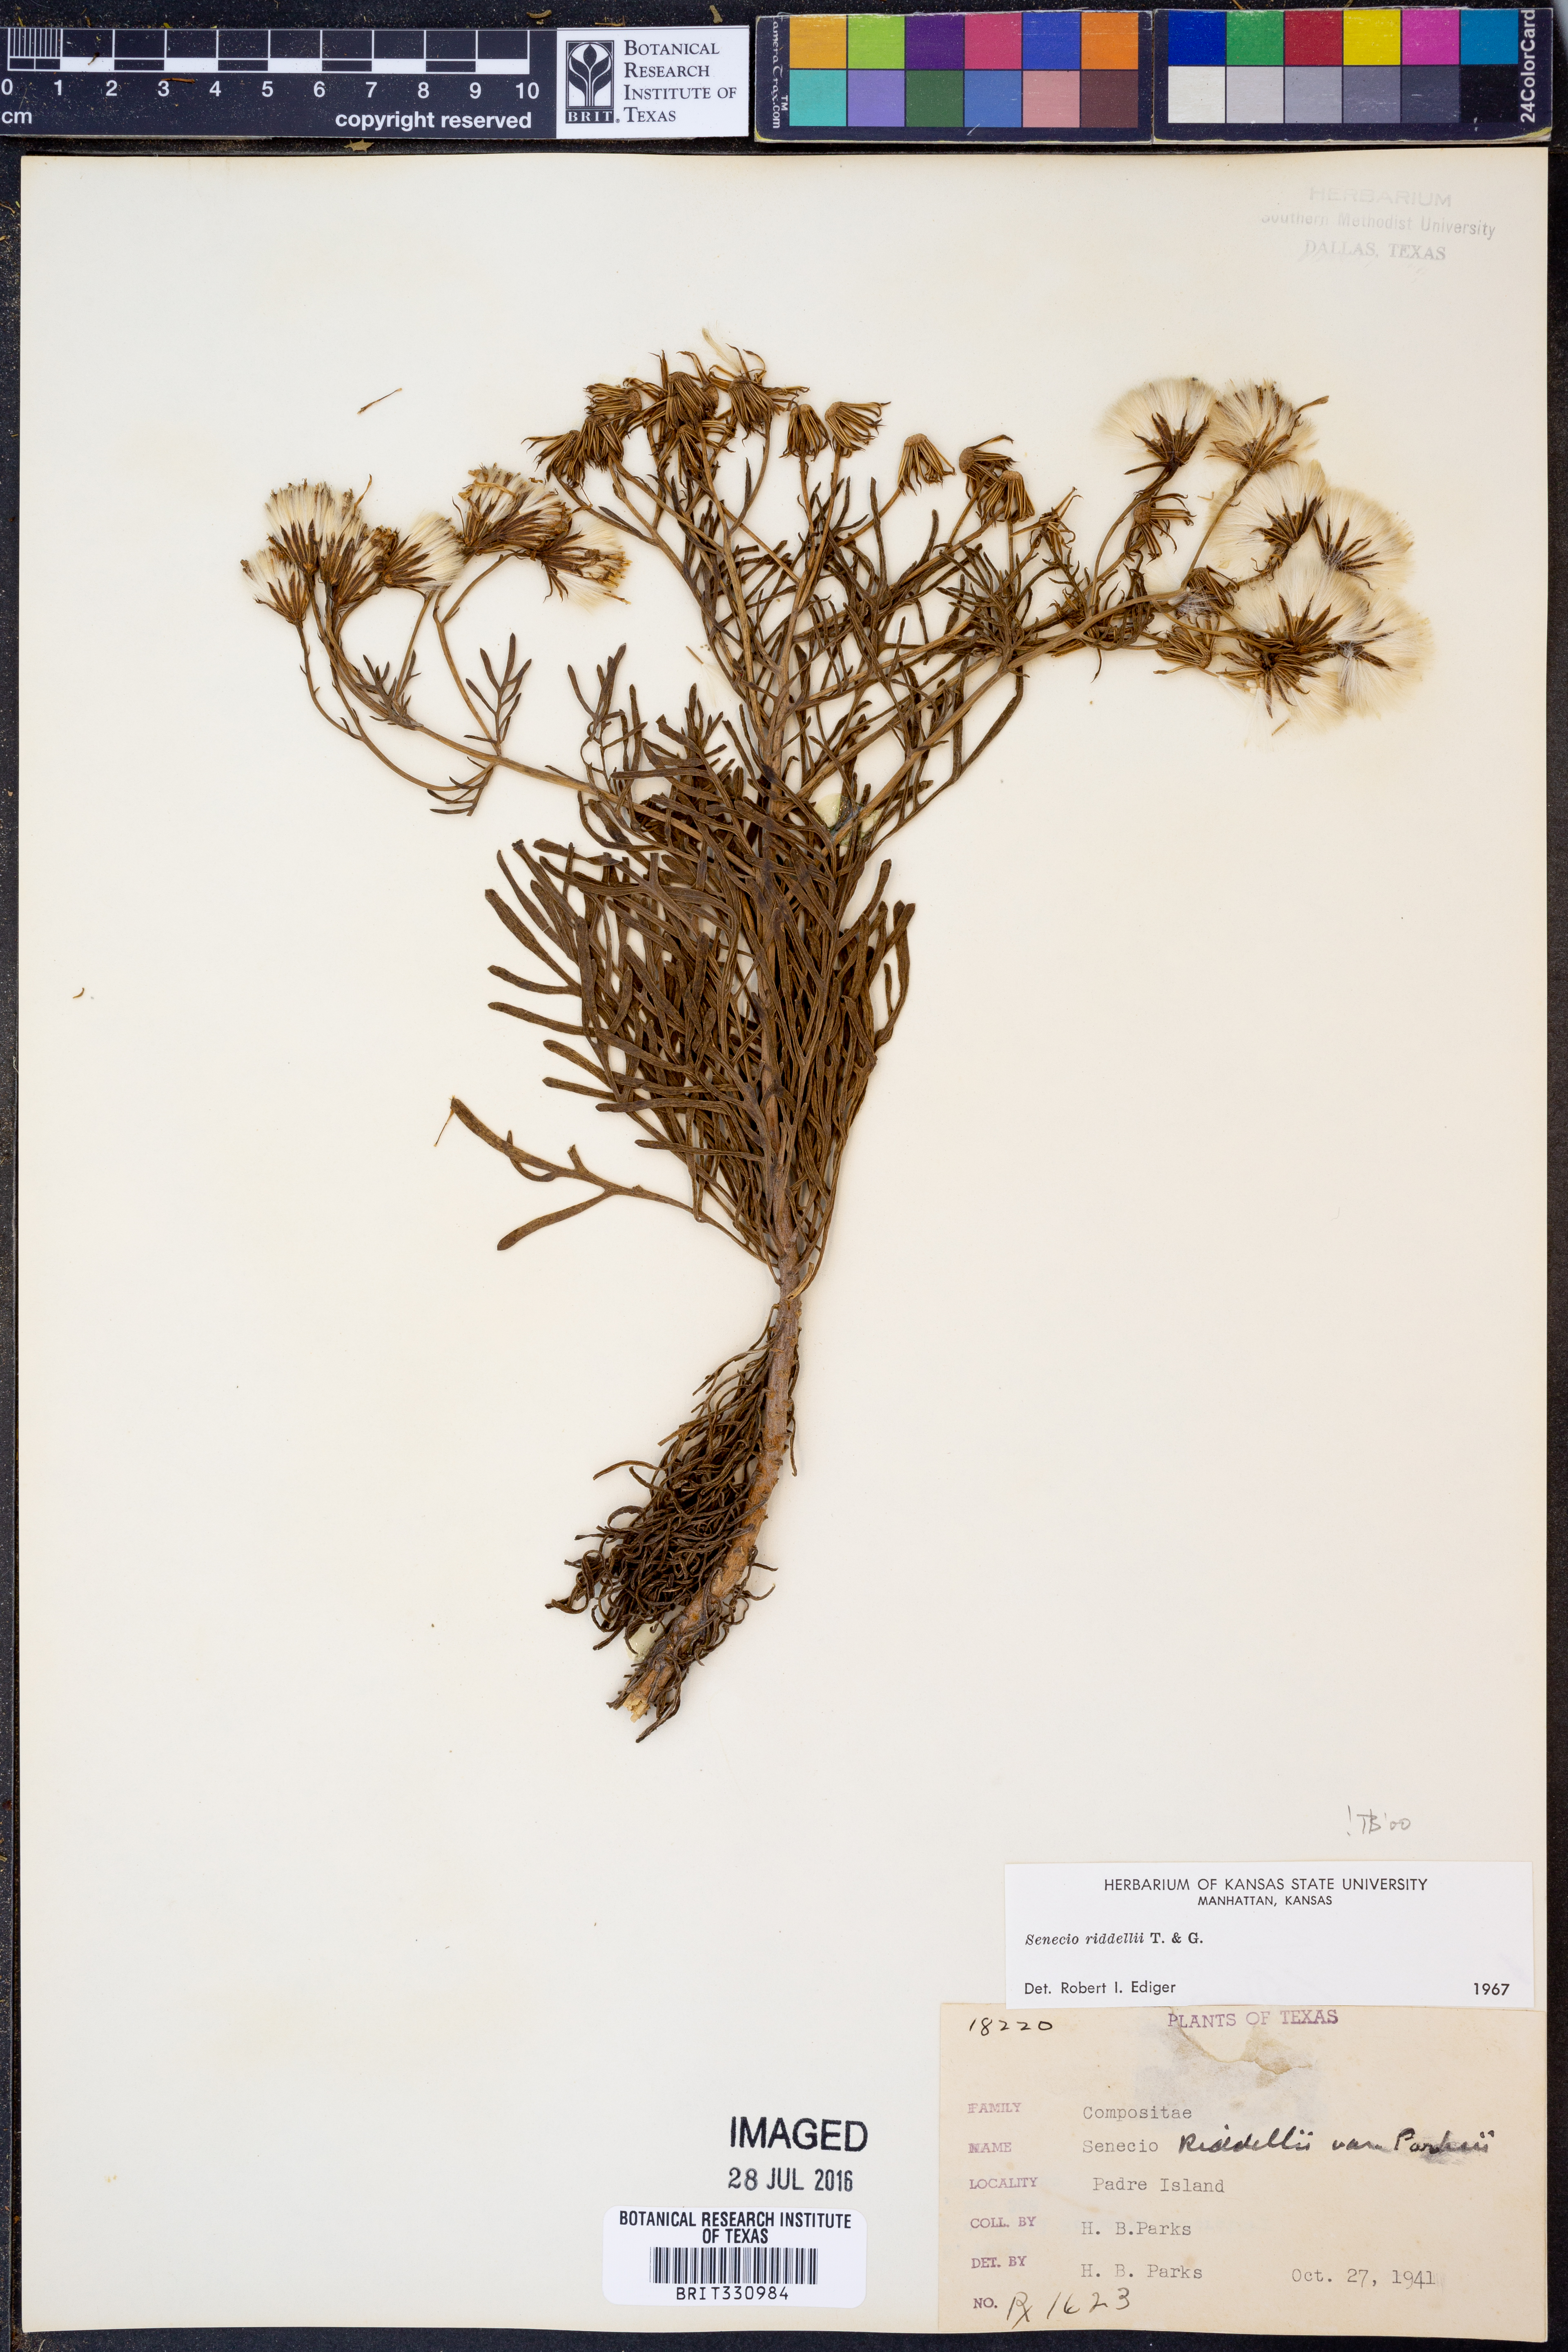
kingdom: Plantae
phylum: Tracheophyta
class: Magnoliopsida
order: Asterales
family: Asteraceae
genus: Senecio
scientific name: Senecio riddellii
